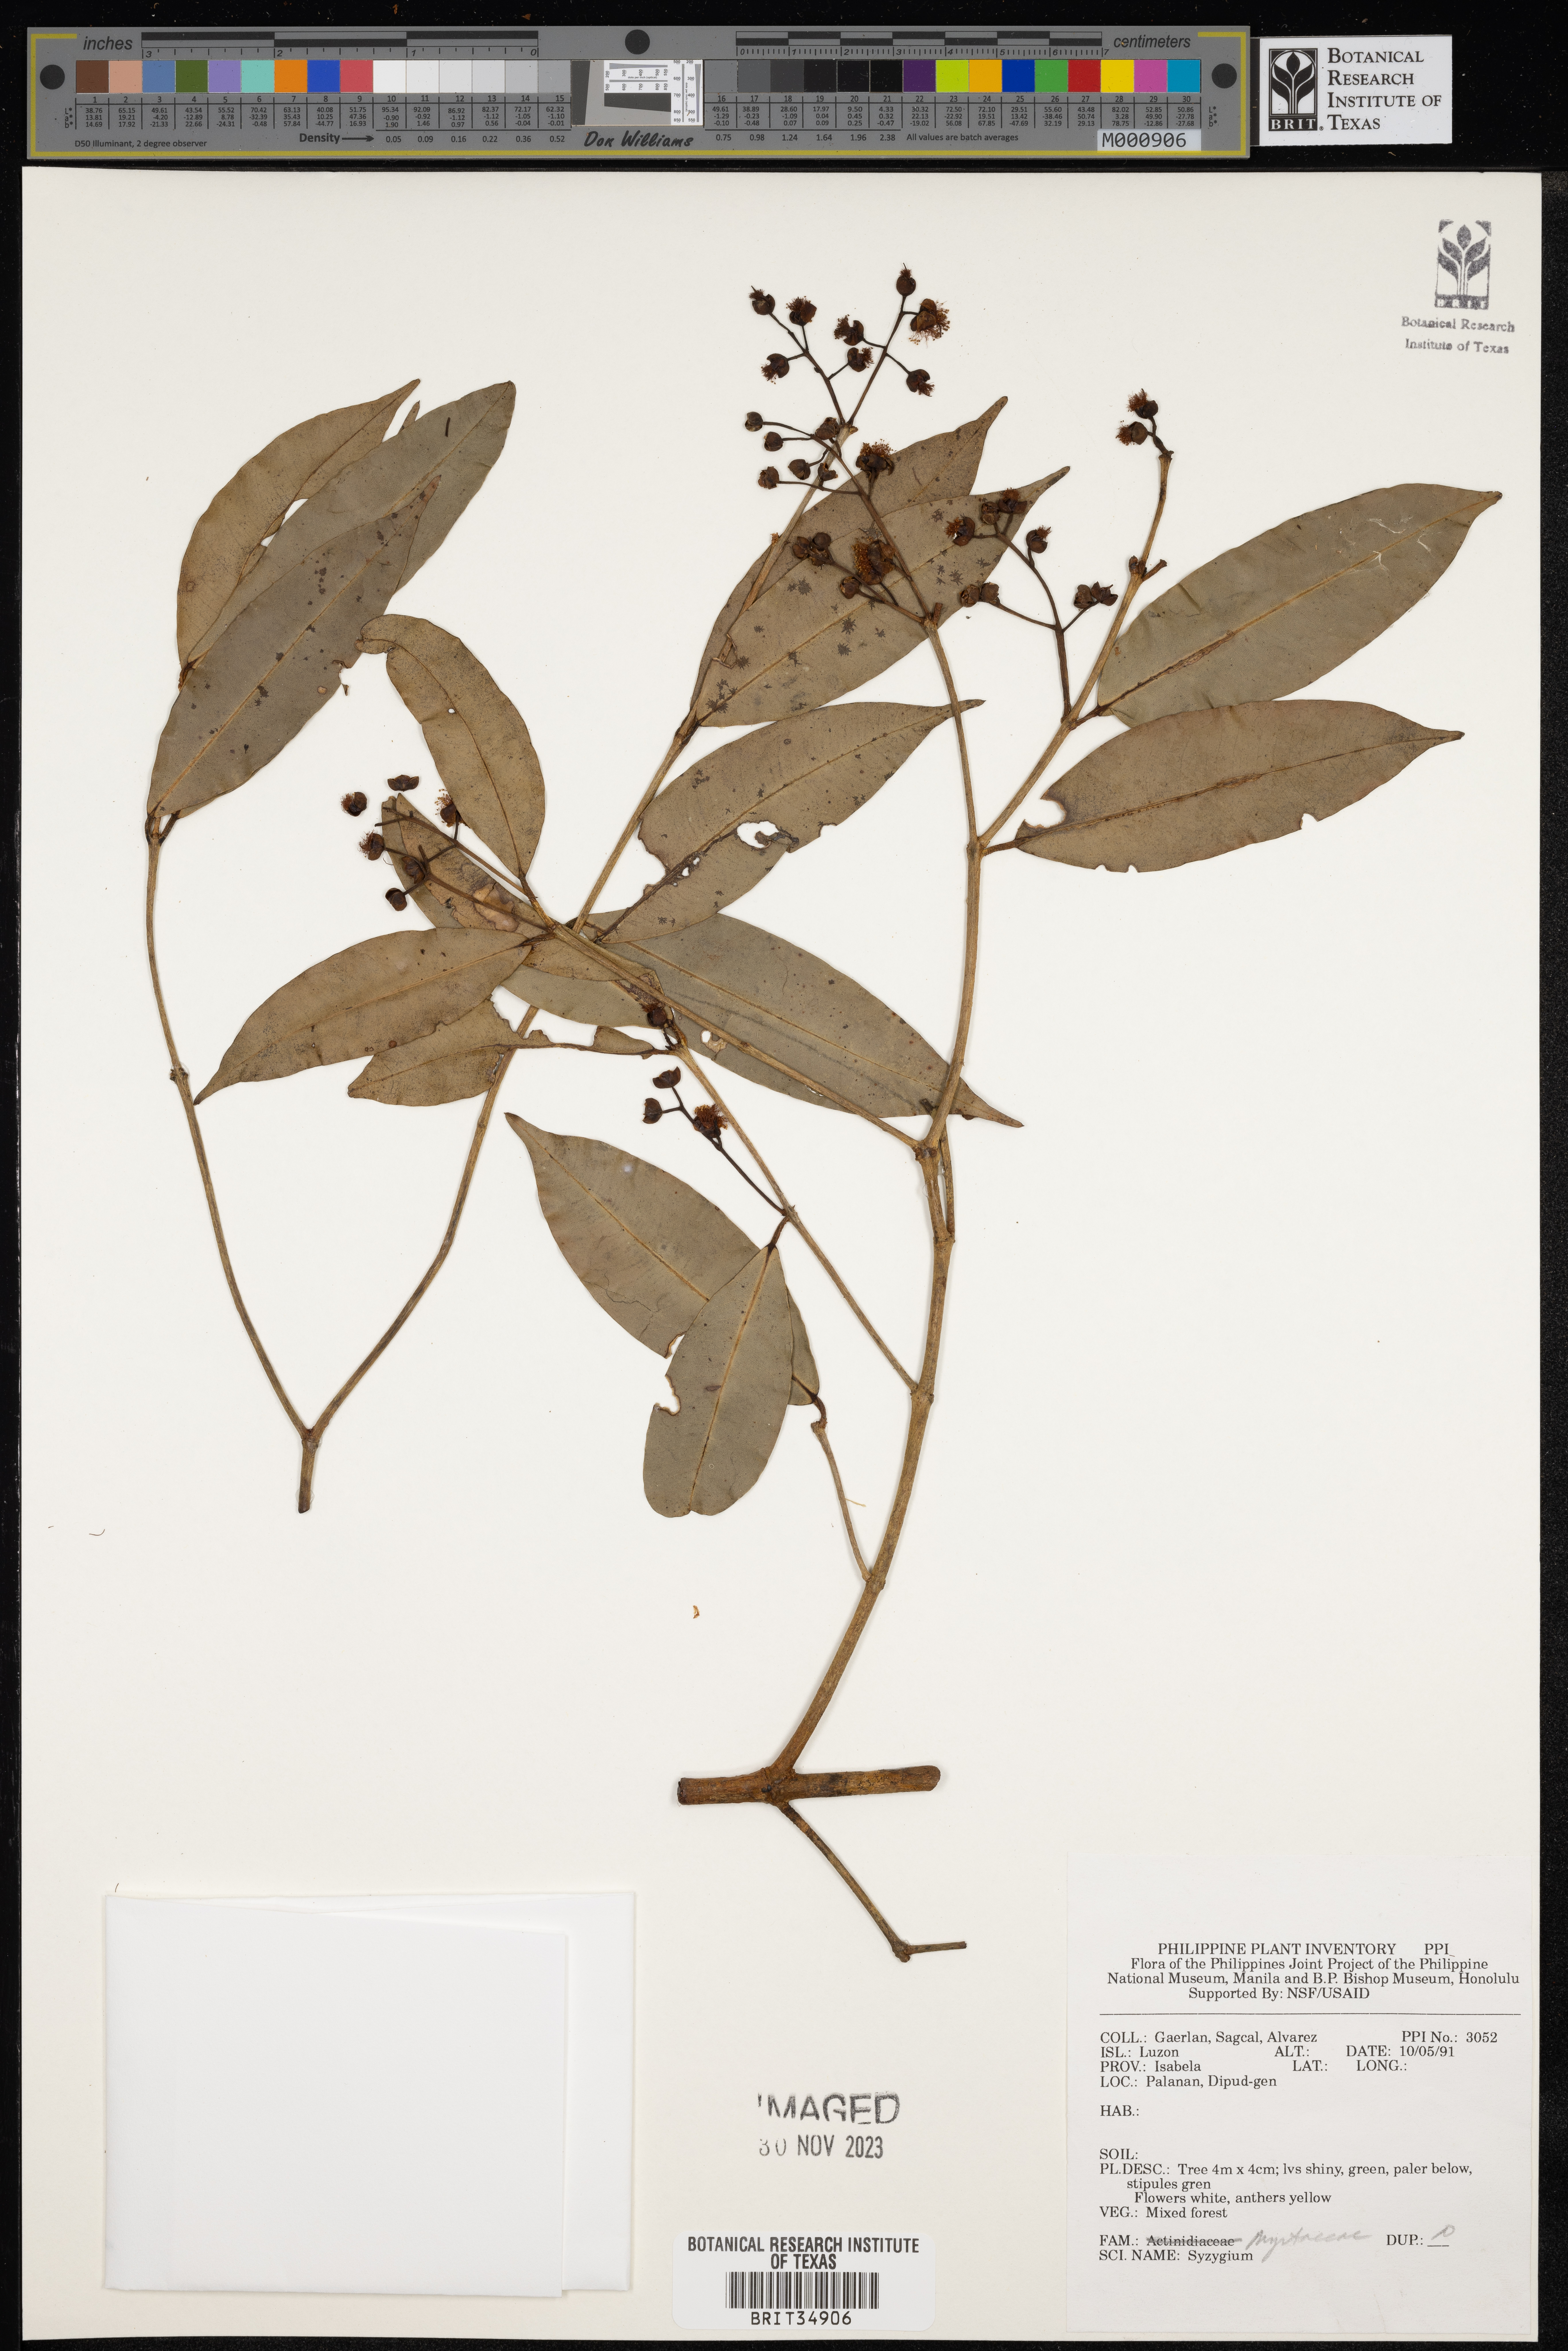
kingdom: Plantae
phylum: Tracheophyta
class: Magnoliopsida
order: Myrtales
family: Myrtaceae
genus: Syzygium
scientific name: Syzygium
